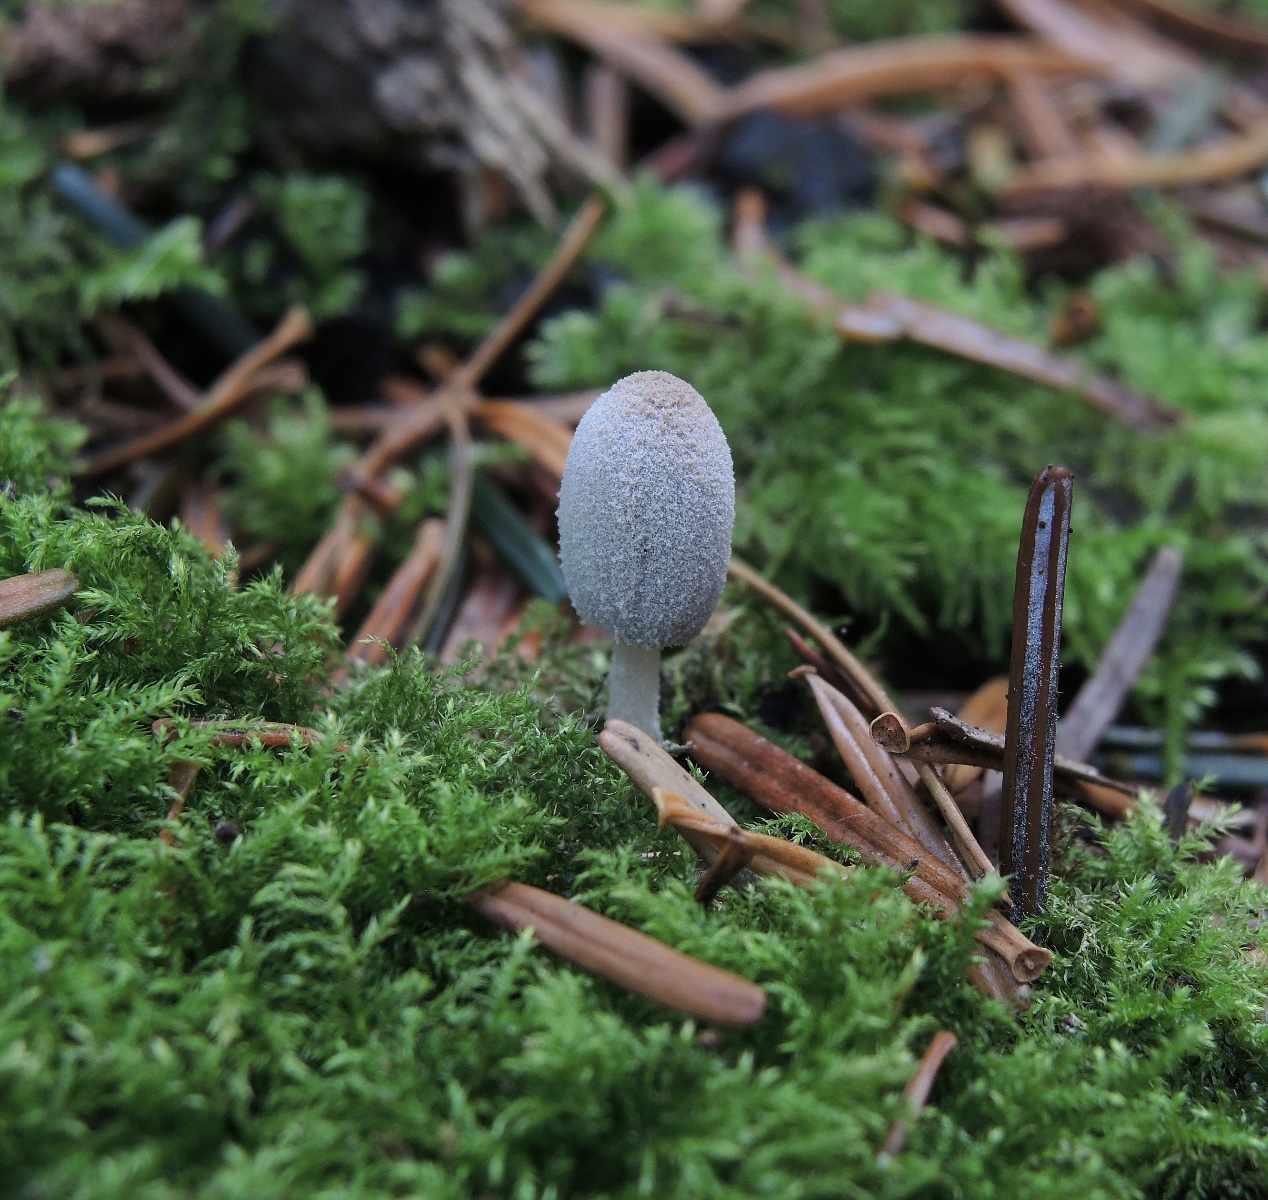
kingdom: Fungi
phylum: Basidiomycota
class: Agaricomycetes
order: Agaricales
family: Psathyrellaceae
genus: Coprinopsis
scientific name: Coprinopsis laanii
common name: stub-blækhat
